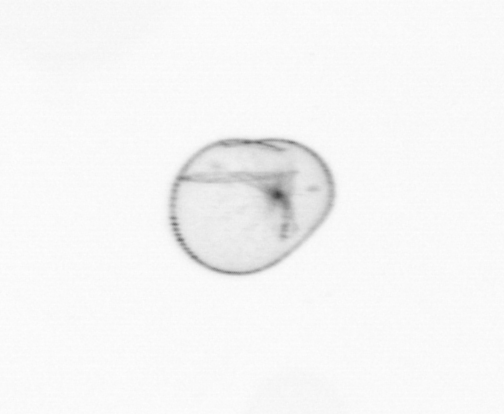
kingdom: Chromista
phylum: Myzozoa
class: Dinophyceae
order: Noctilucales
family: Noctilucaceae
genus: Noctiluca
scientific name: Noctiluca scintillans
